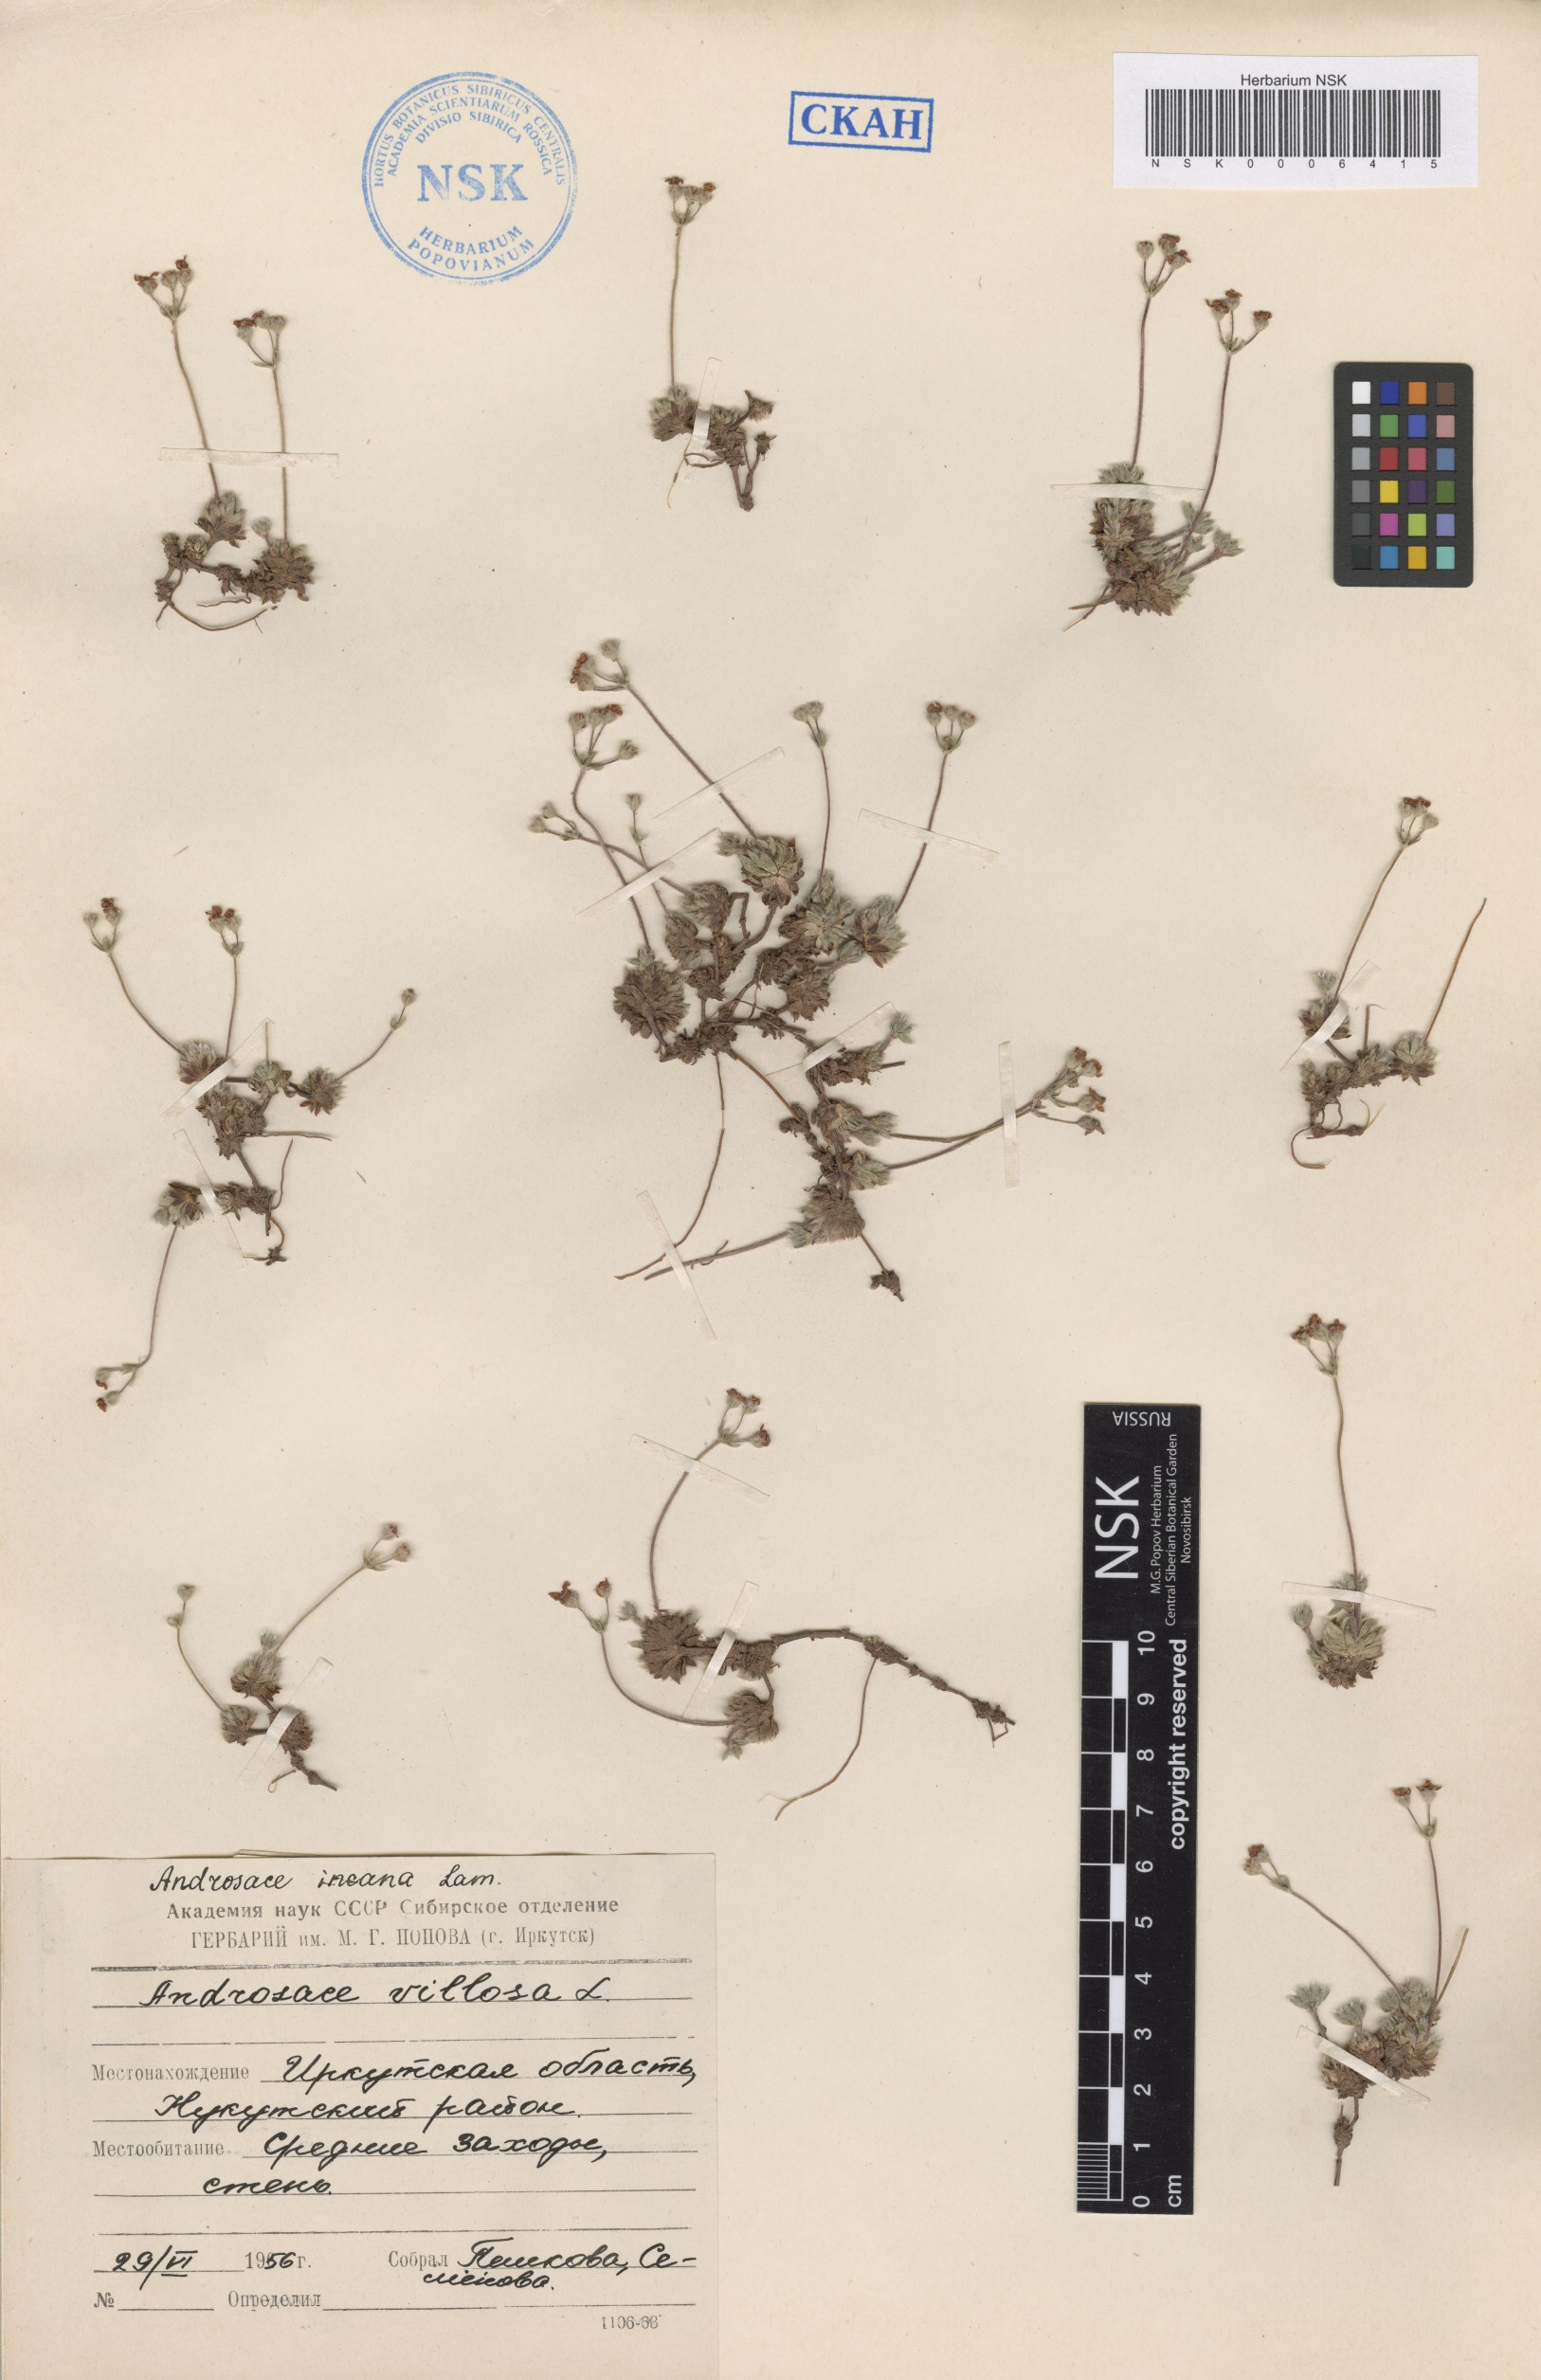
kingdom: Plantae
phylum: Tracheophyta
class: Magnoliopsida
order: Ericales
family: Primulaceae
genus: Androsace
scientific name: Androsace incana
